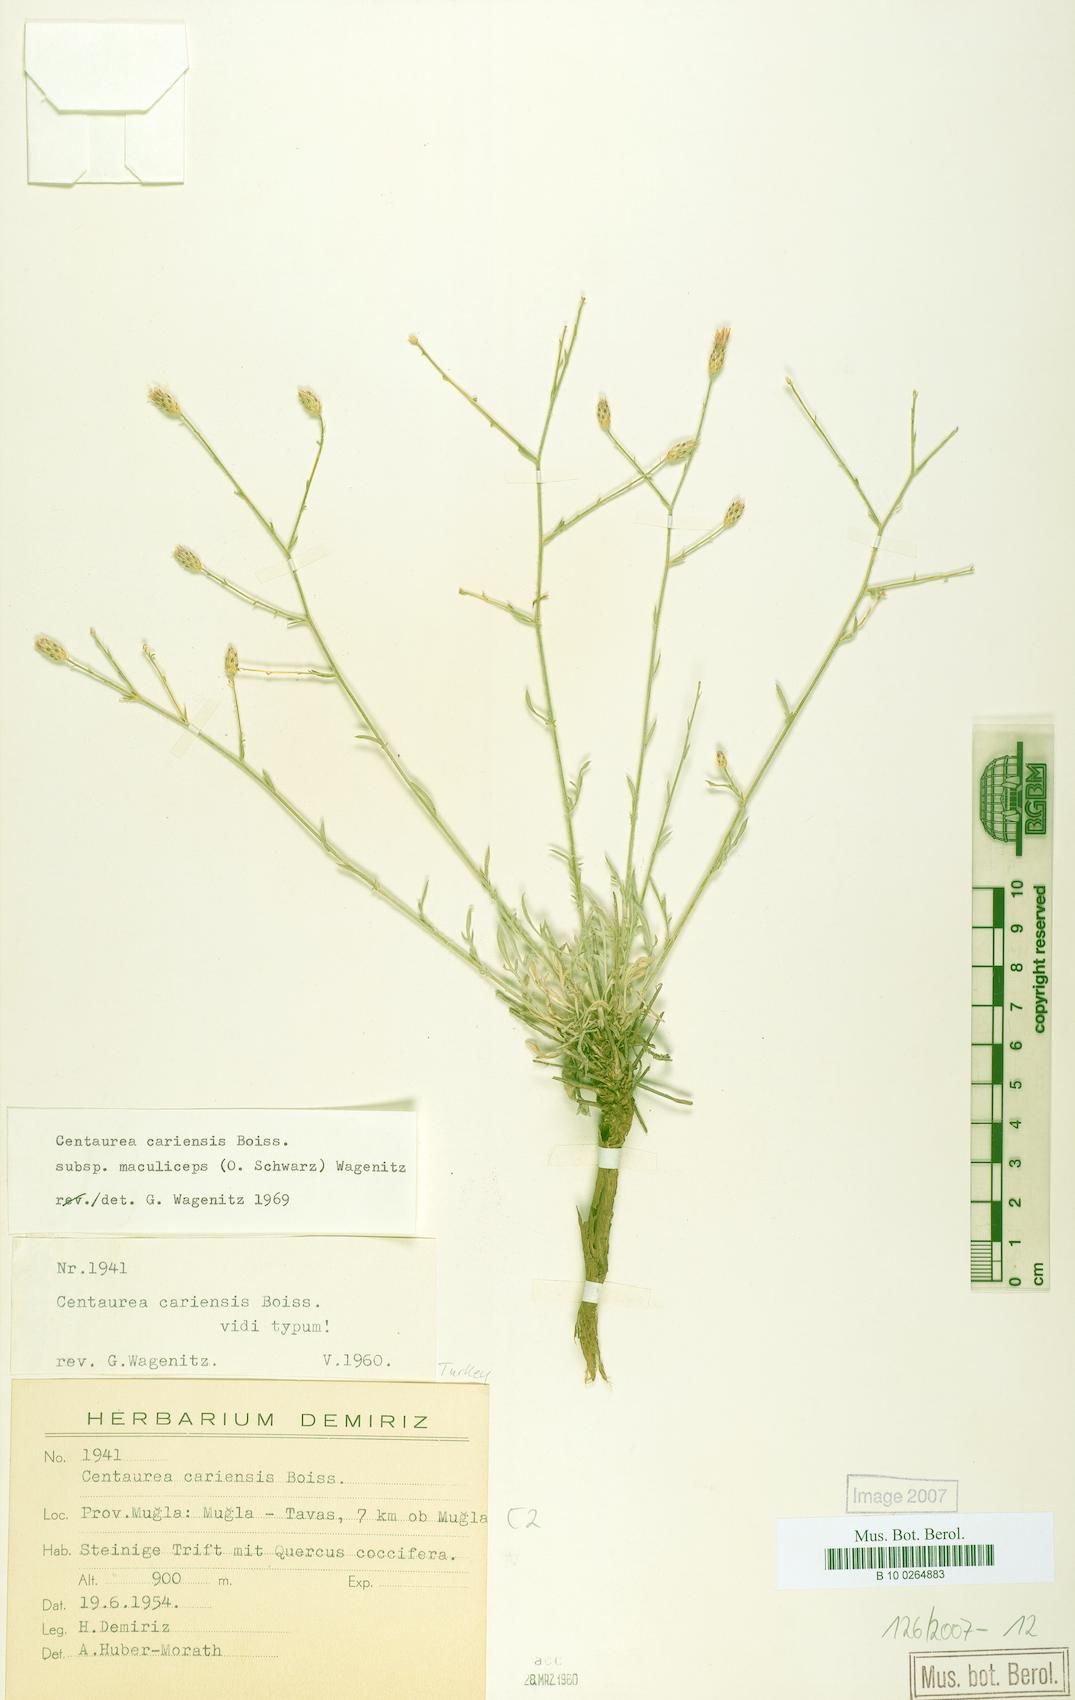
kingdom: Plantae
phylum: Tracheophyta
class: Magnoliopsida
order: Asterales
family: Asteraceae
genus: Centaurea
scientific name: Centaurea cariensis
